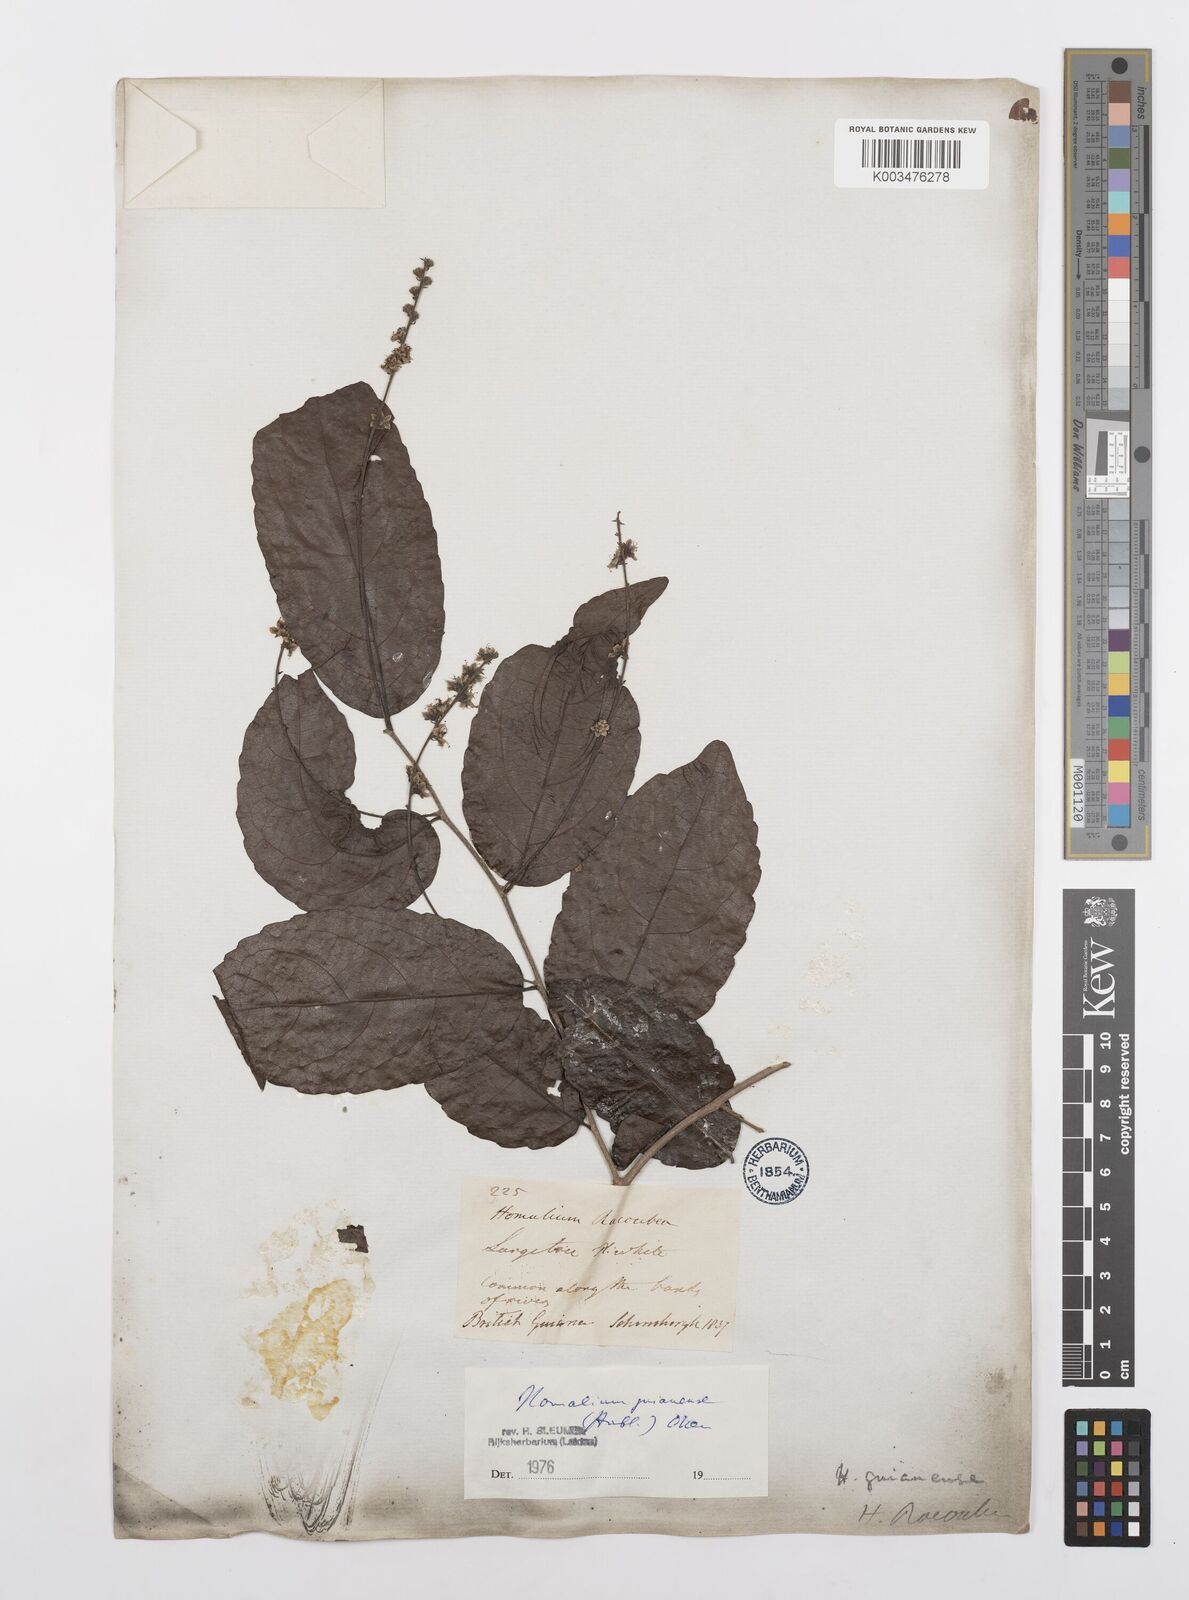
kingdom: Plantae
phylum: Tracheophyta
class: Magnoliopsida
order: Malpighiales
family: Salicaceae
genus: Homalium
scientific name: Homalium guianense
